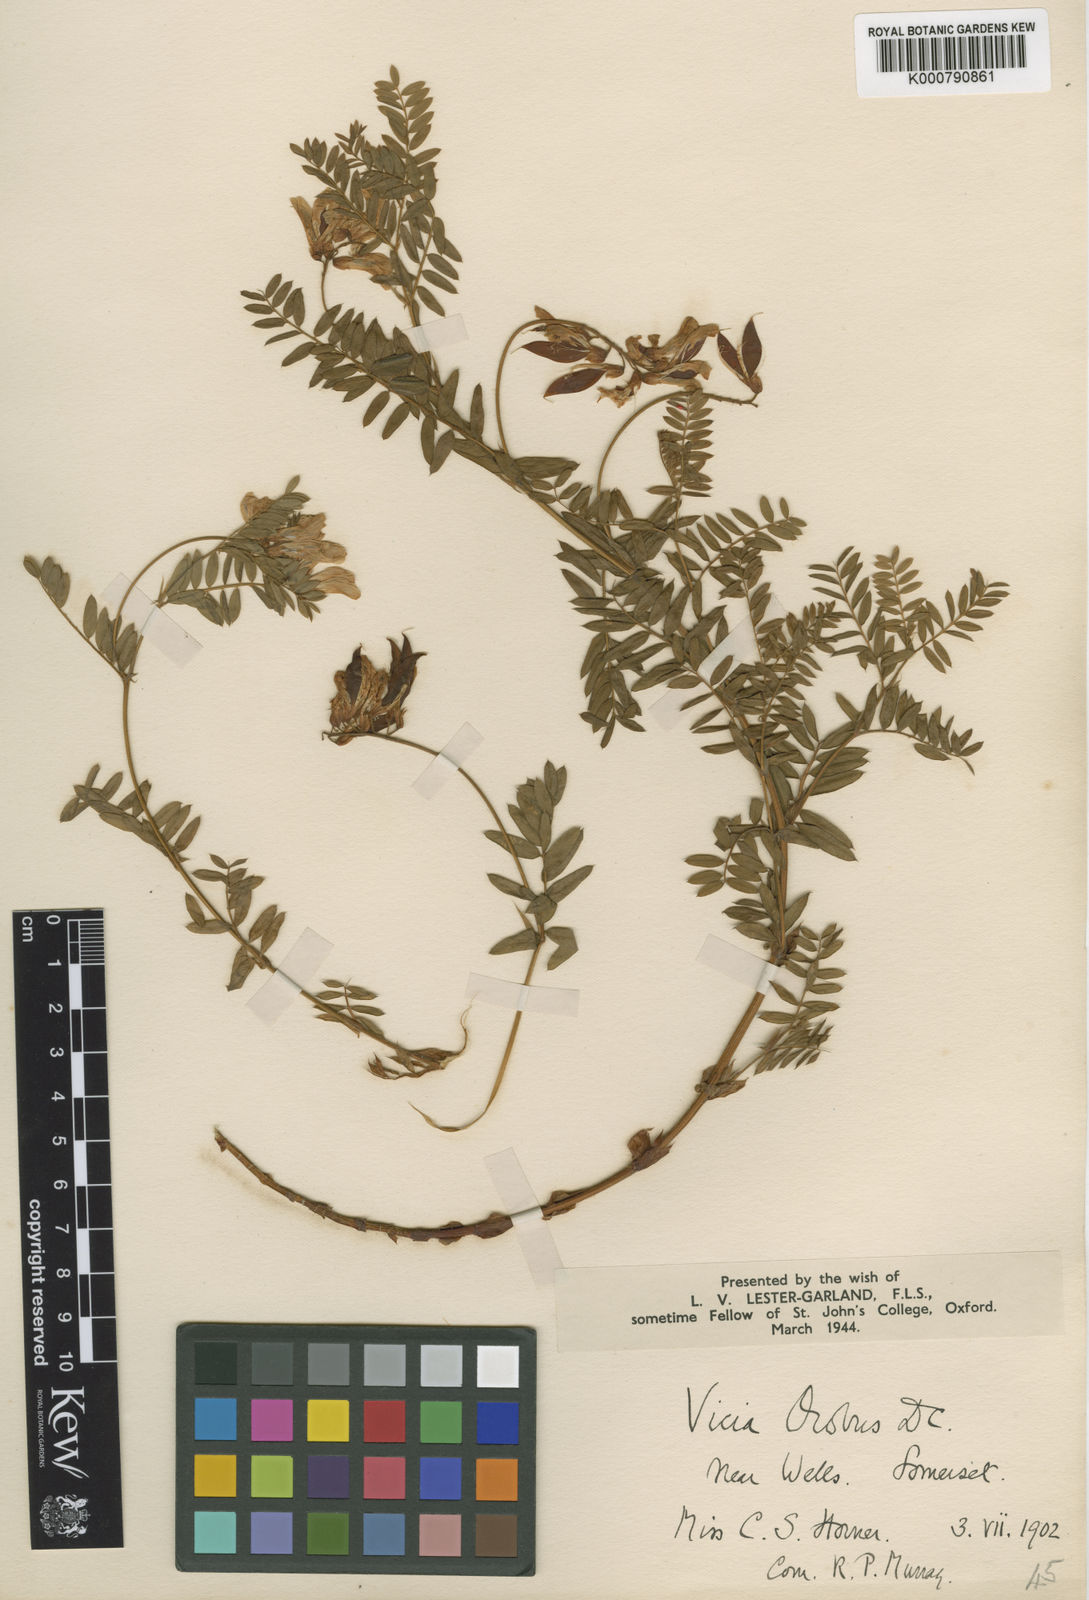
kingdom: Plantae
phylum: Tracheophyta
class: Magnoliopsida
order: Fabales
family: Fabaceae
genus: Vicia
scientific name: Vicia orobus
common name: Wood bitter-vetch
